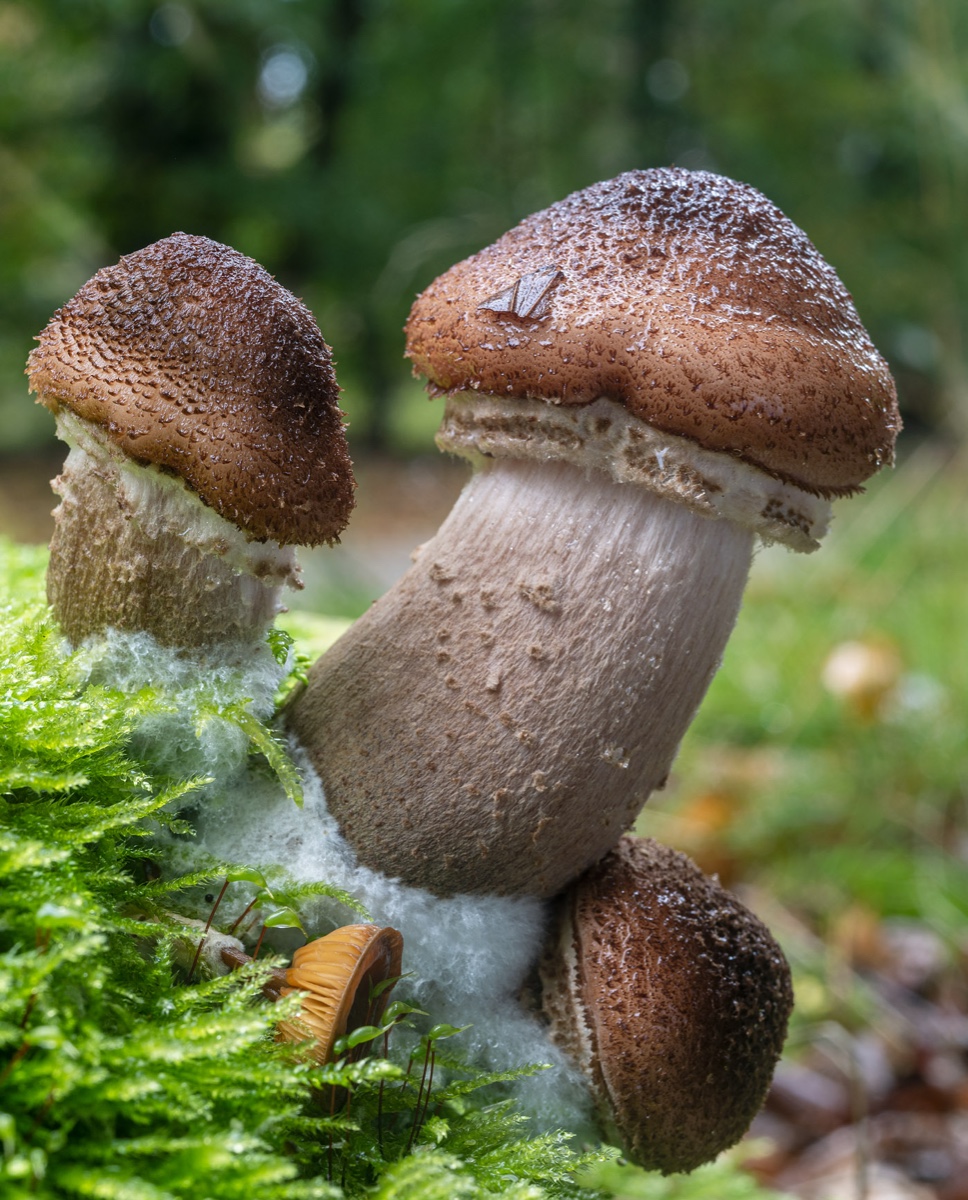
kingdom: Fungi
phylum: Basidiomycota
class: Agaricomycetes
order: Agaricales
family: Physalacriaceae
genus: Armillaria
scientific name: Armillaria lutea
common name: køllestokket honningsvamp
